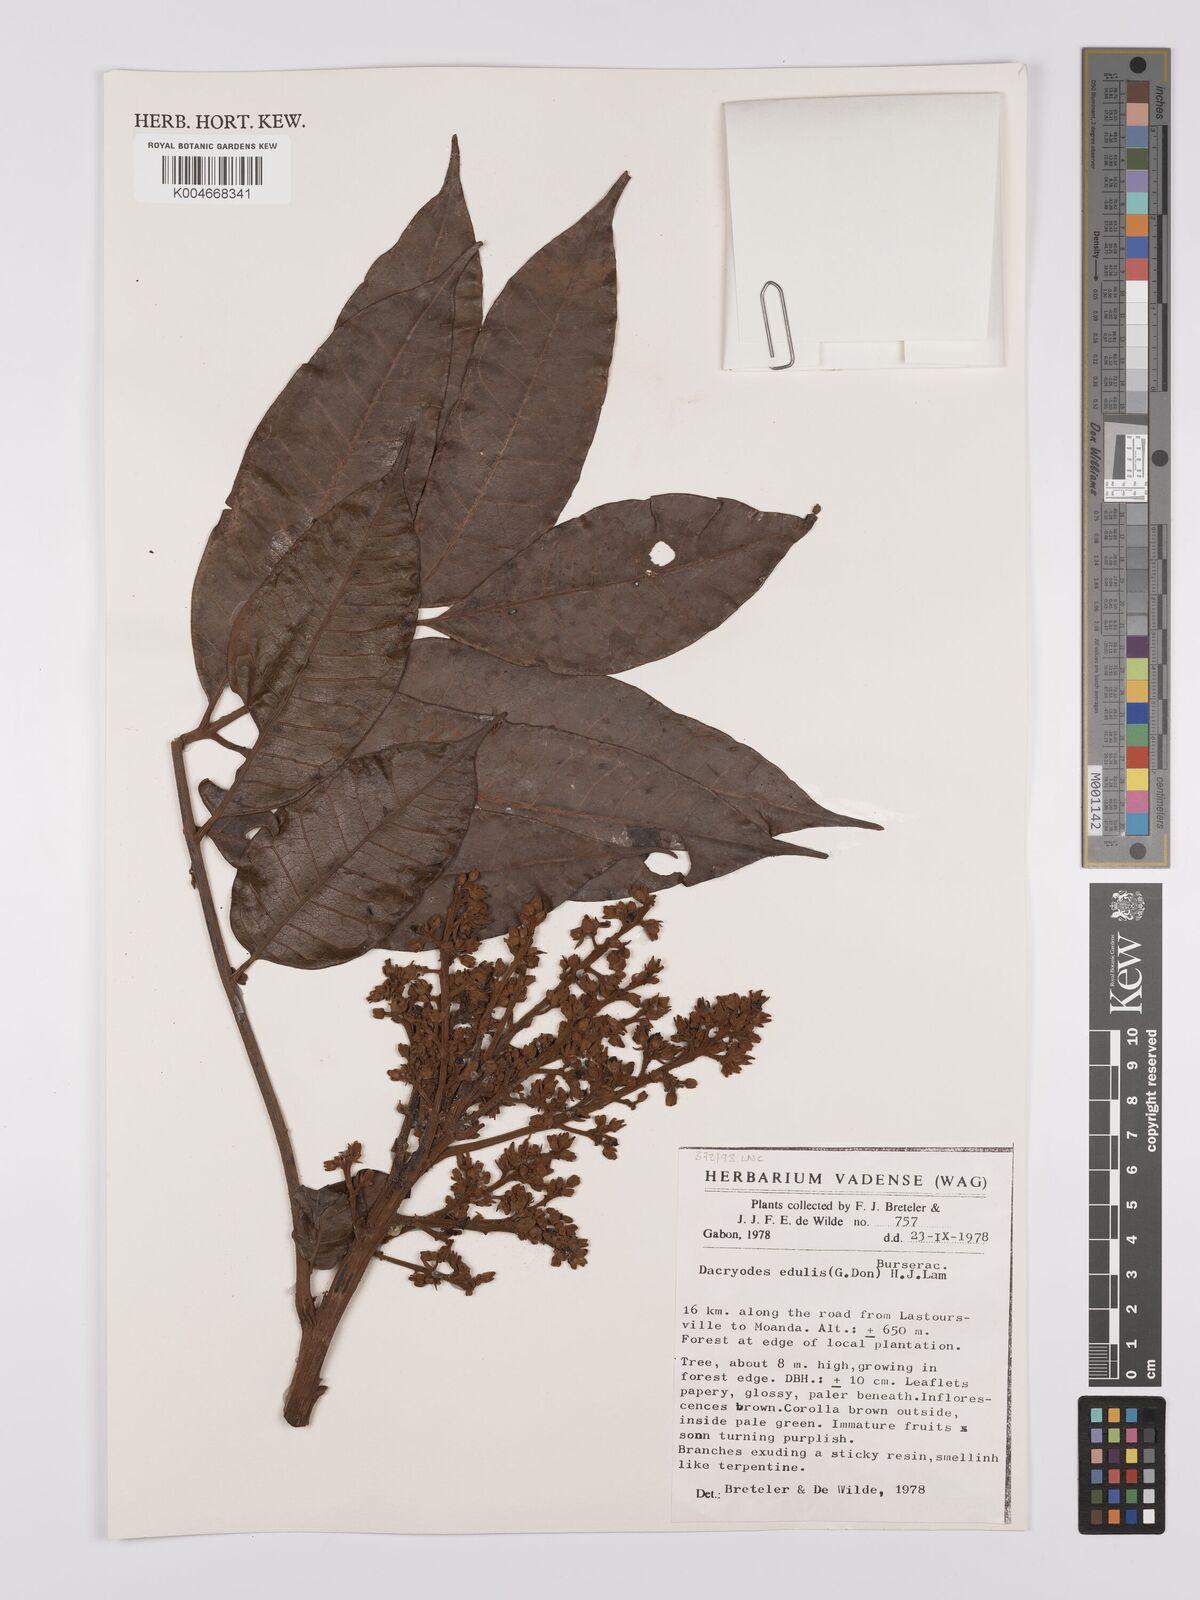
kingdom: Plantae
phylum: Tracheophyta
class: Magnoliopsida
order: Sapindales
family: Burseraceae
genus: Pachylobus
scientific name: Pachylobus edulis
